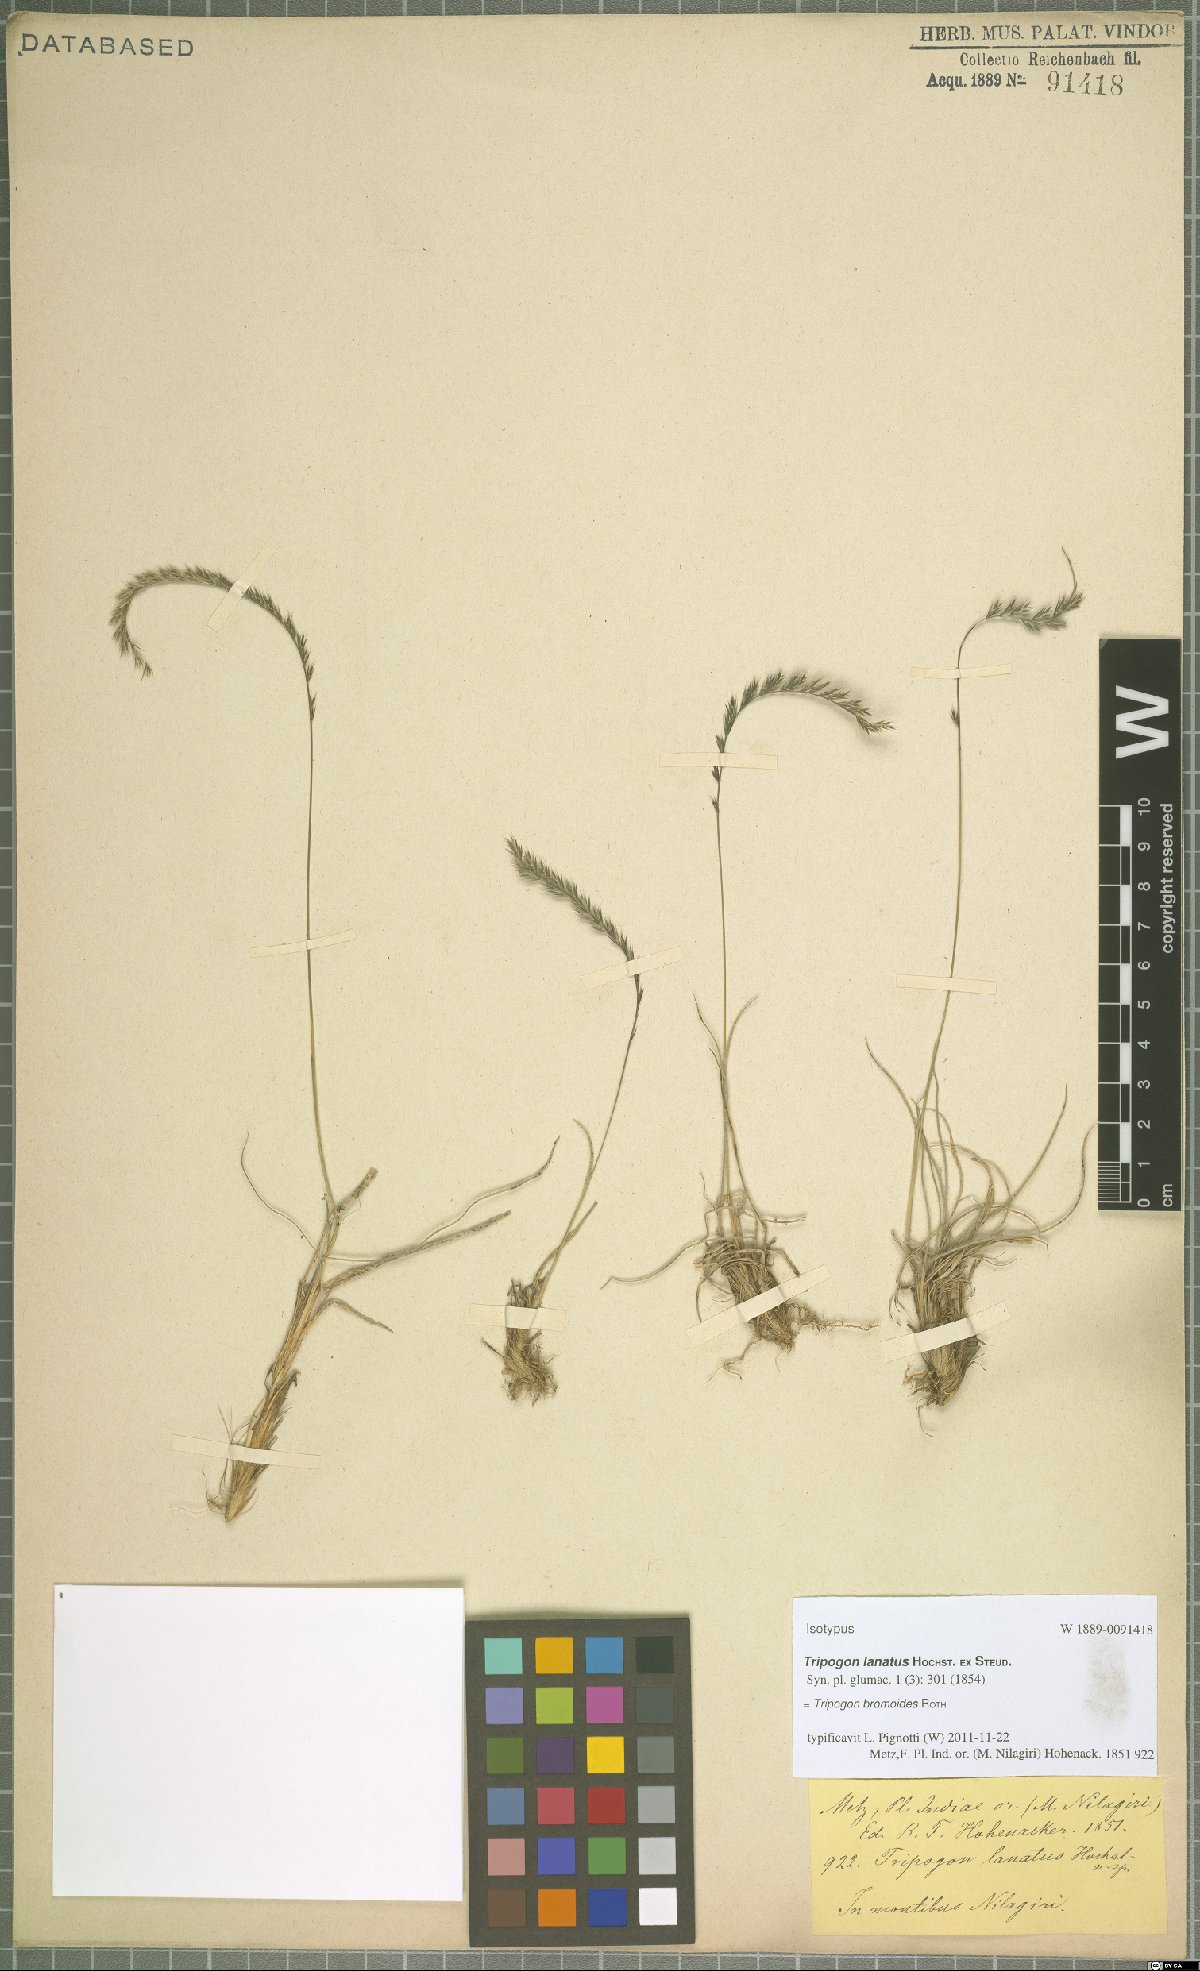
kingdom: Plantae
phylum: Tracheophyta
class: Liliopsida
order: Poales
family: Poaceae
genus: Tripogon
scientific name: Tripogon bromoides
